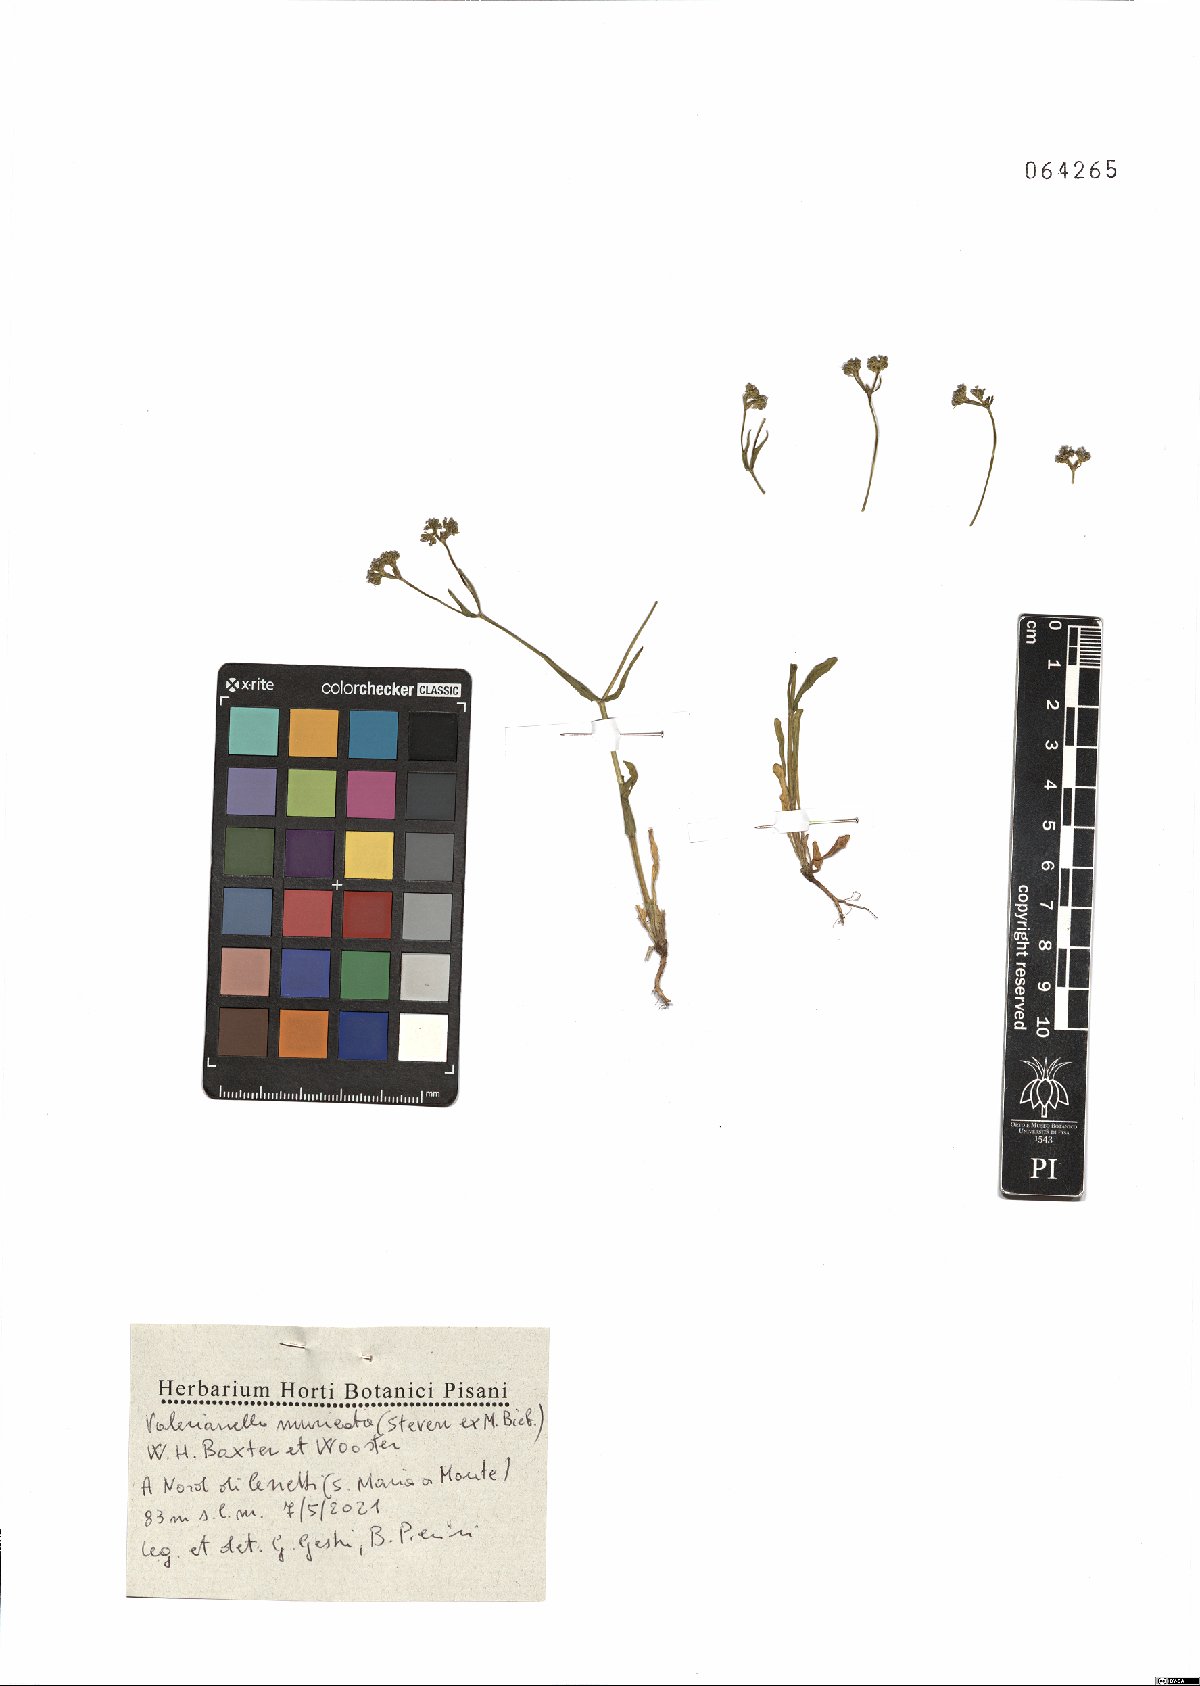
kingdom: Plantae
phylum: Tracheophyta
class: Magnoliopsida
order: Dipsacales
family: Caprifoliaceae
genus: Valerianella
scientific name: Valerianella eriocarpa
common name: Hairy-fruited cornsalad
